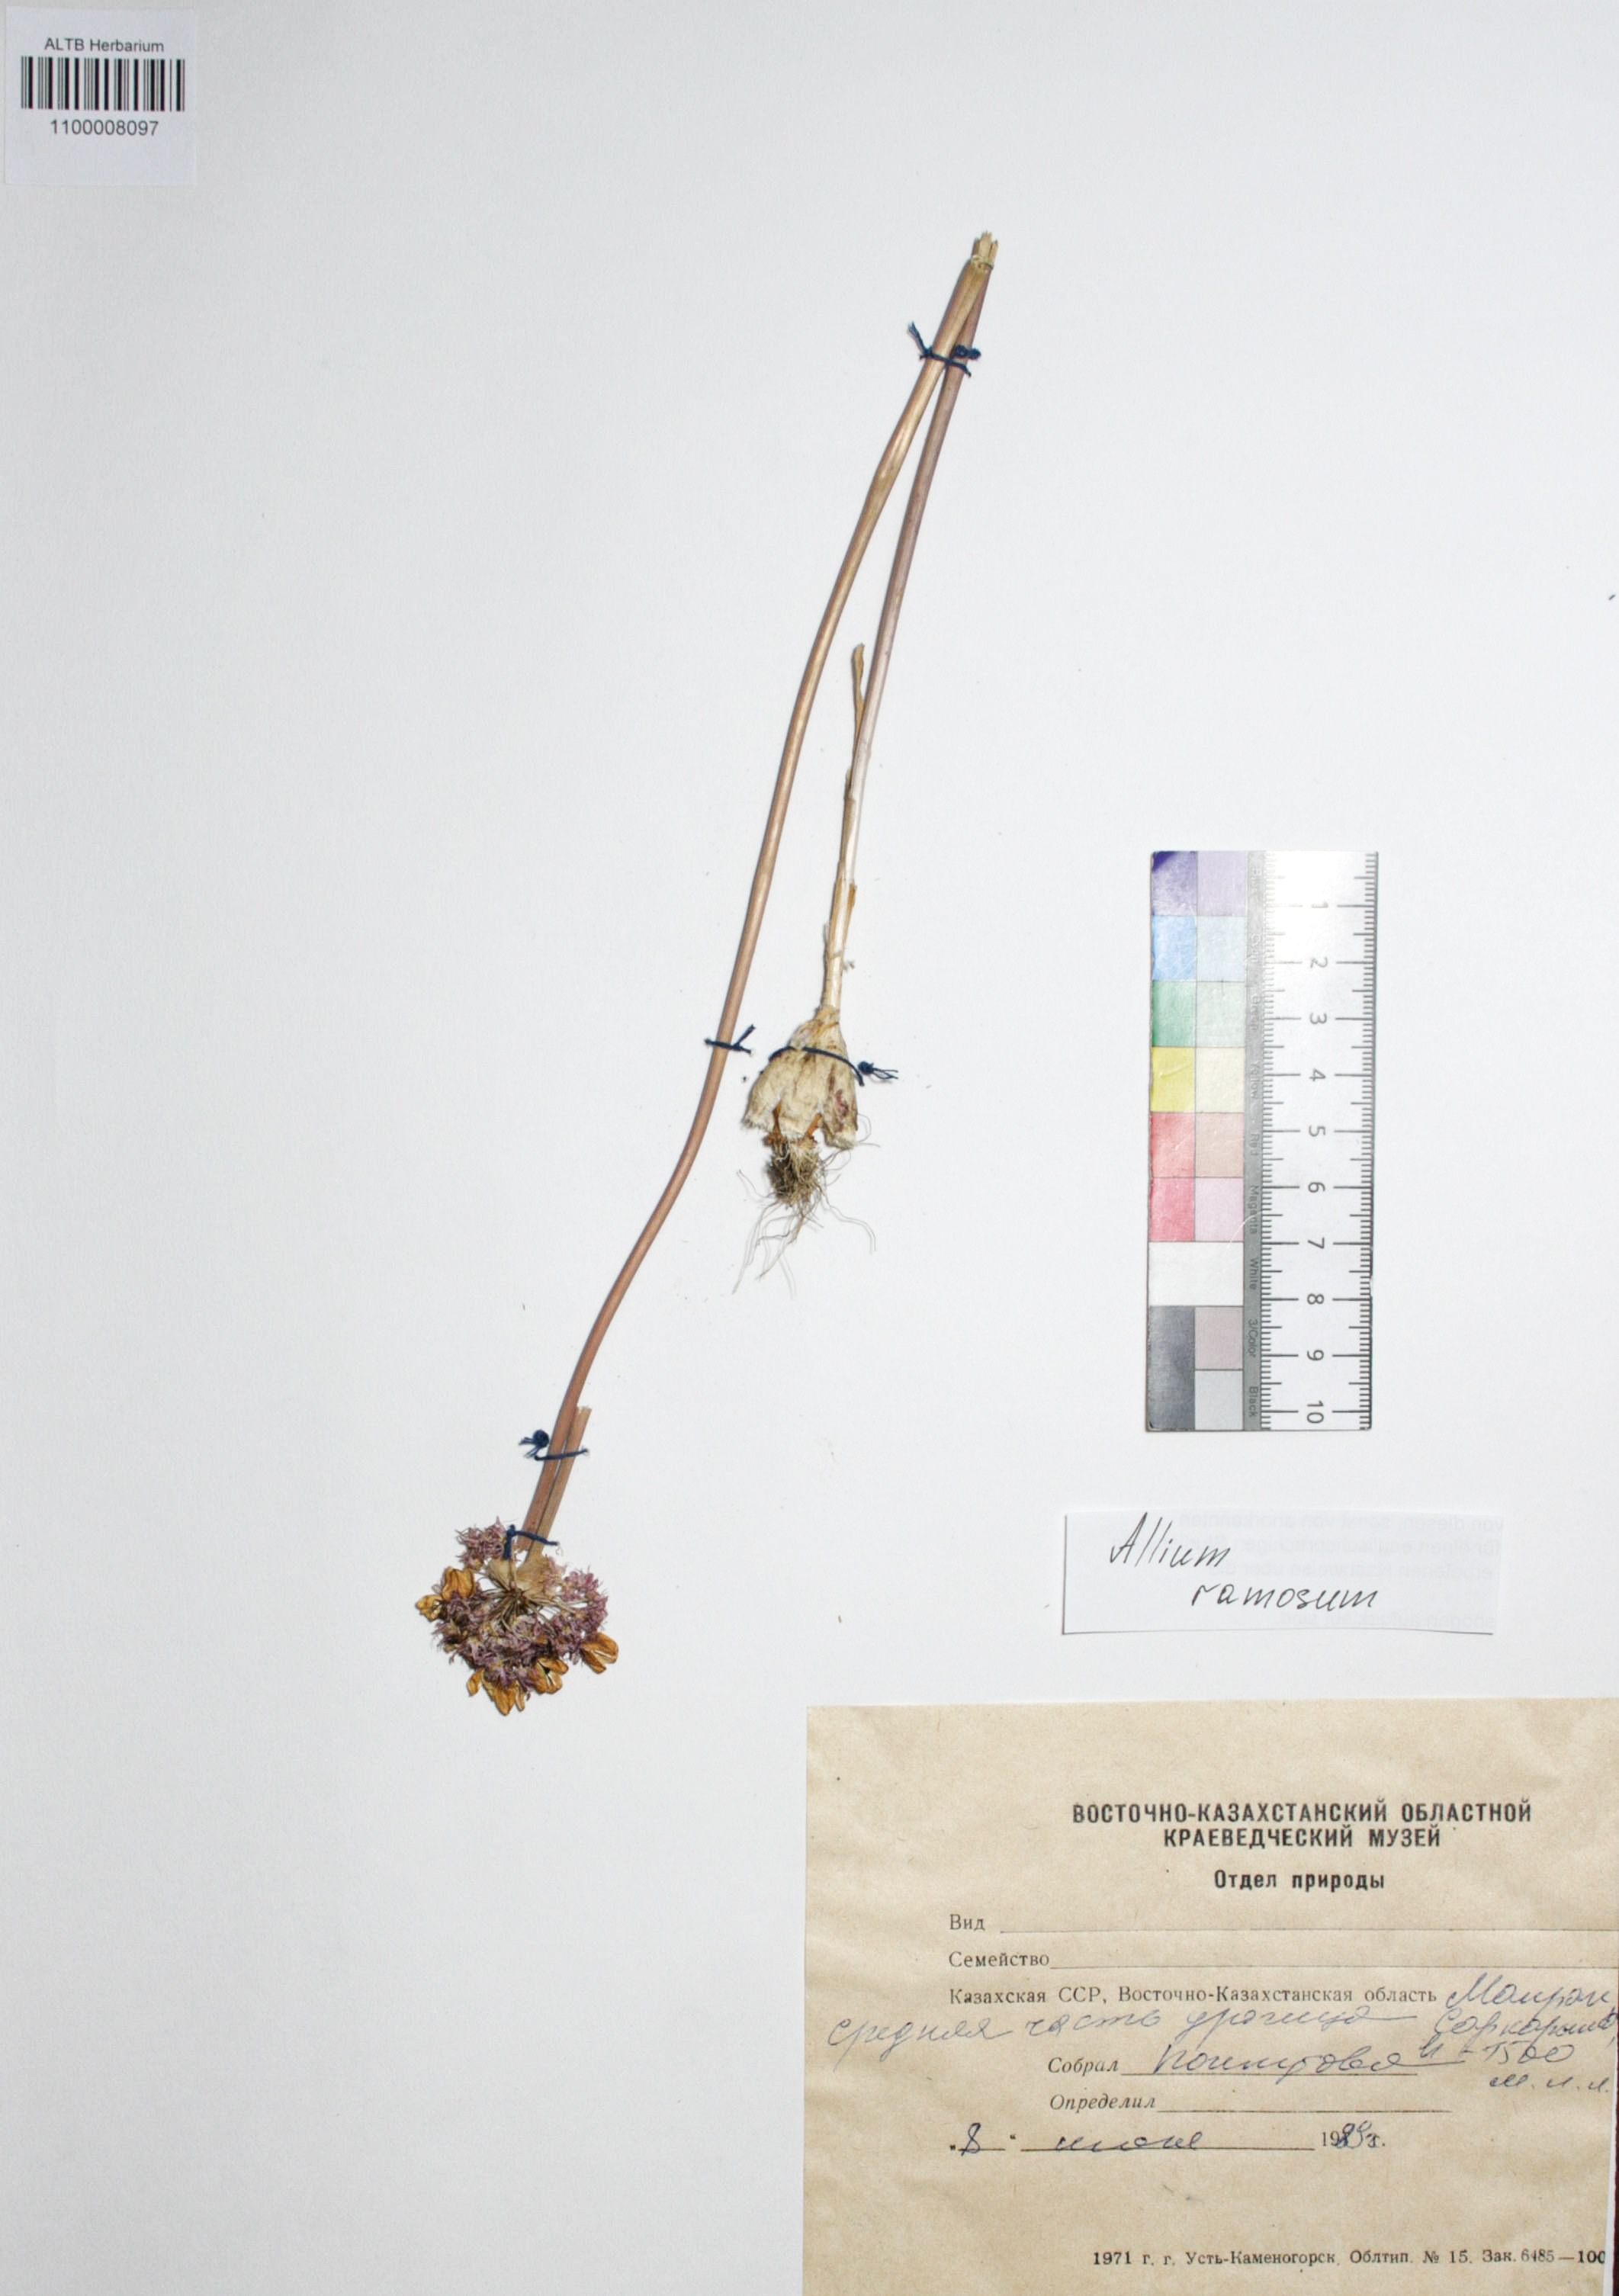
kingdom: Plantae
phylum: Tracheophyta
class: Liliopsida
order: Asparagales
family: Amaryllidaceae
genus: Allium
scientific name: Allium ramosum
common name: Fragrant garlic
